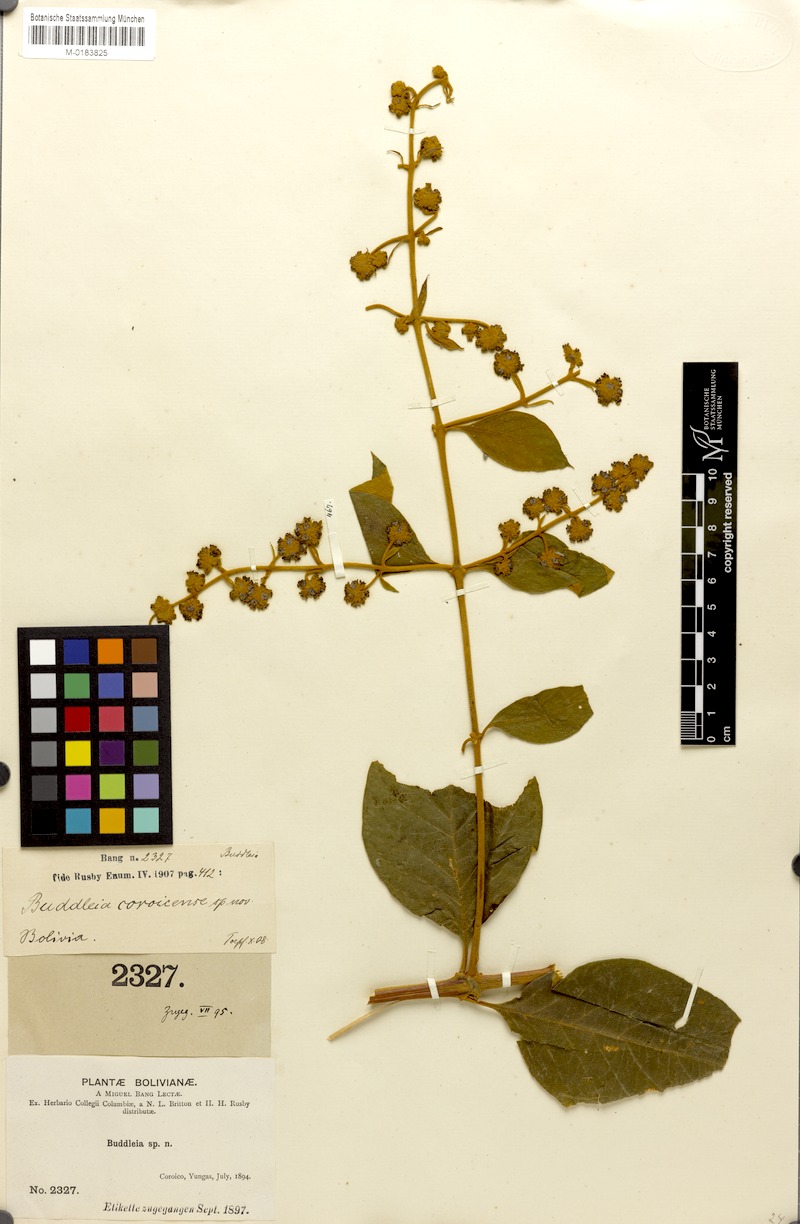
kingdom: Plantae
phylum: Tracheophyta
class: Magnoliopsida
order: Lamiales
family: Scrophulariaceae
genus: Buddleja
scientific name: Buddleja diffusa
